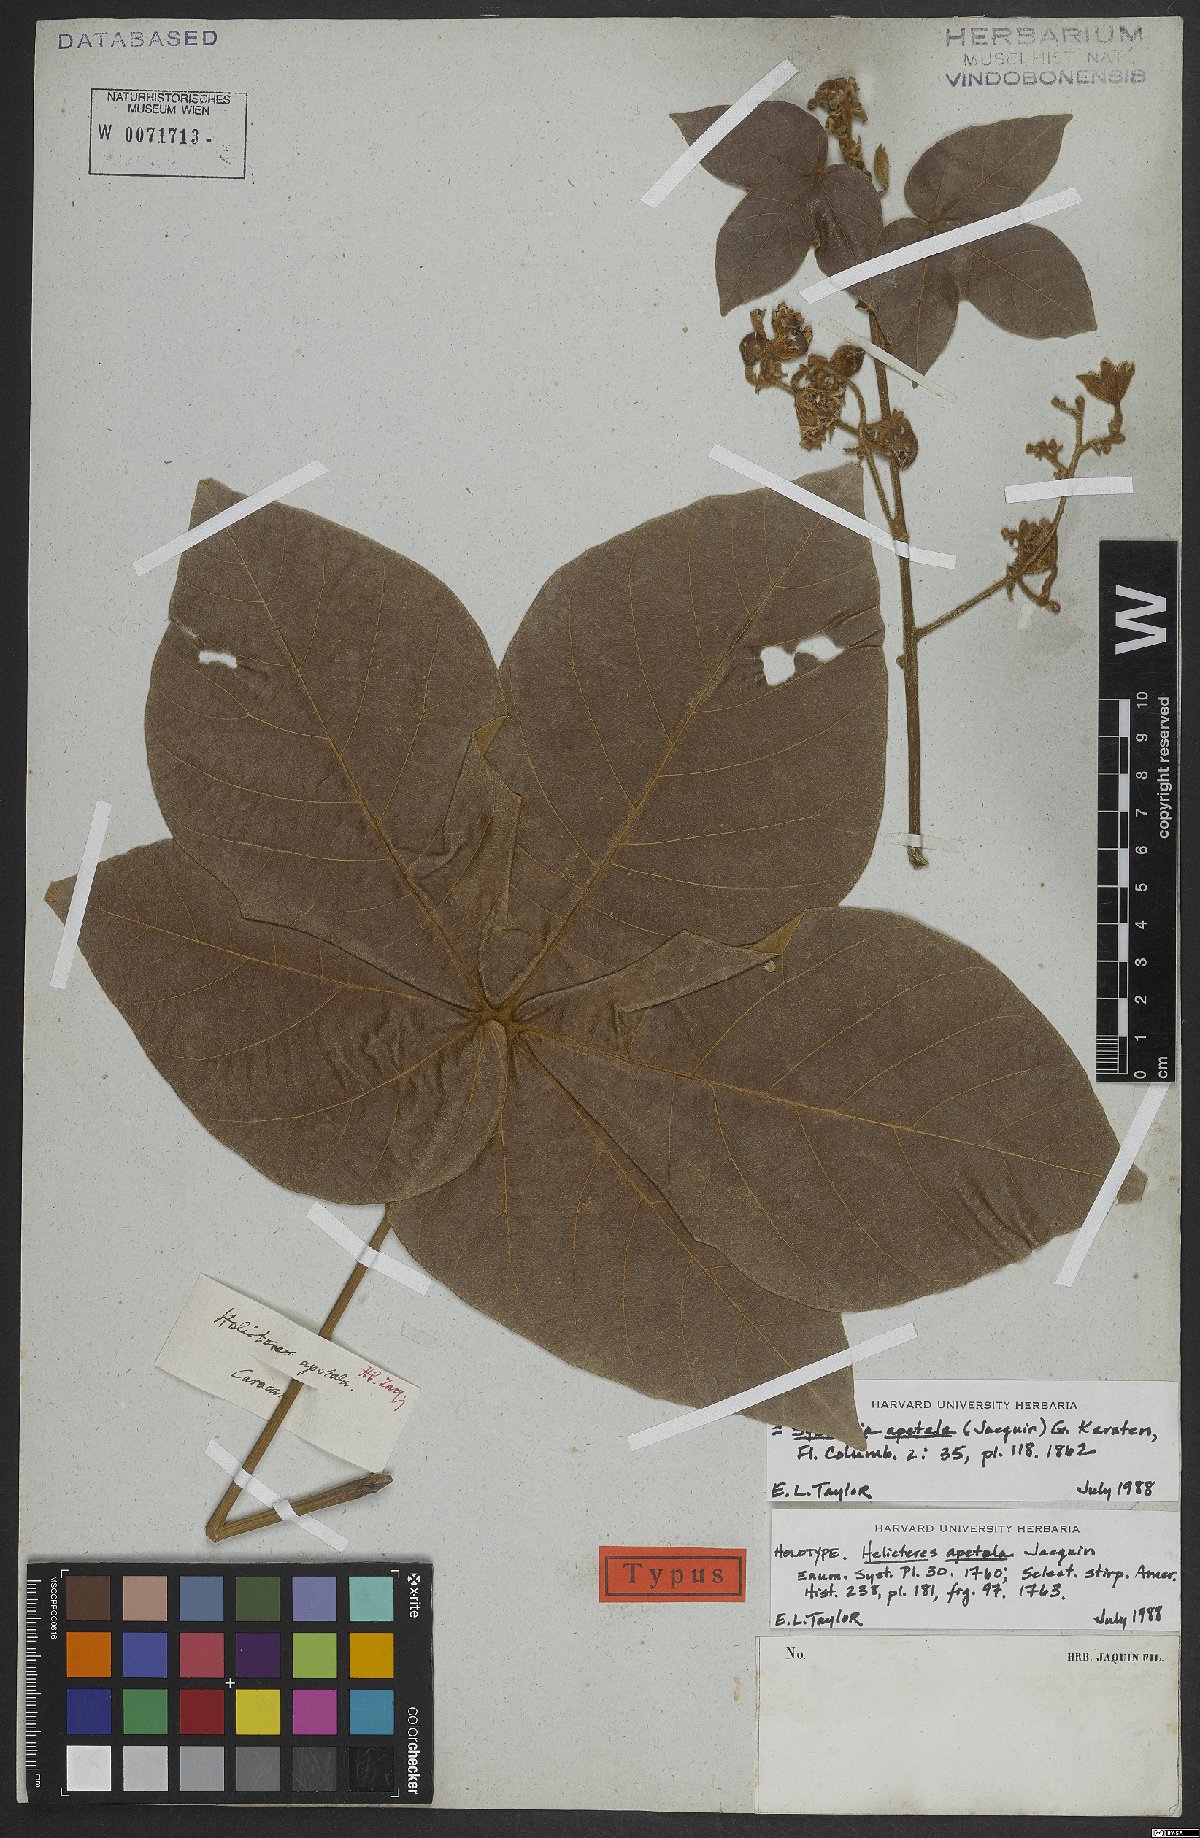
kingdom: Plantae
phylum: Tracheophyta
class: Magnoliopsida
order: Malvales
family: Malvaceae
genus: Sterculia
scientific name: Sterculia apetala
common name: Panama tree
